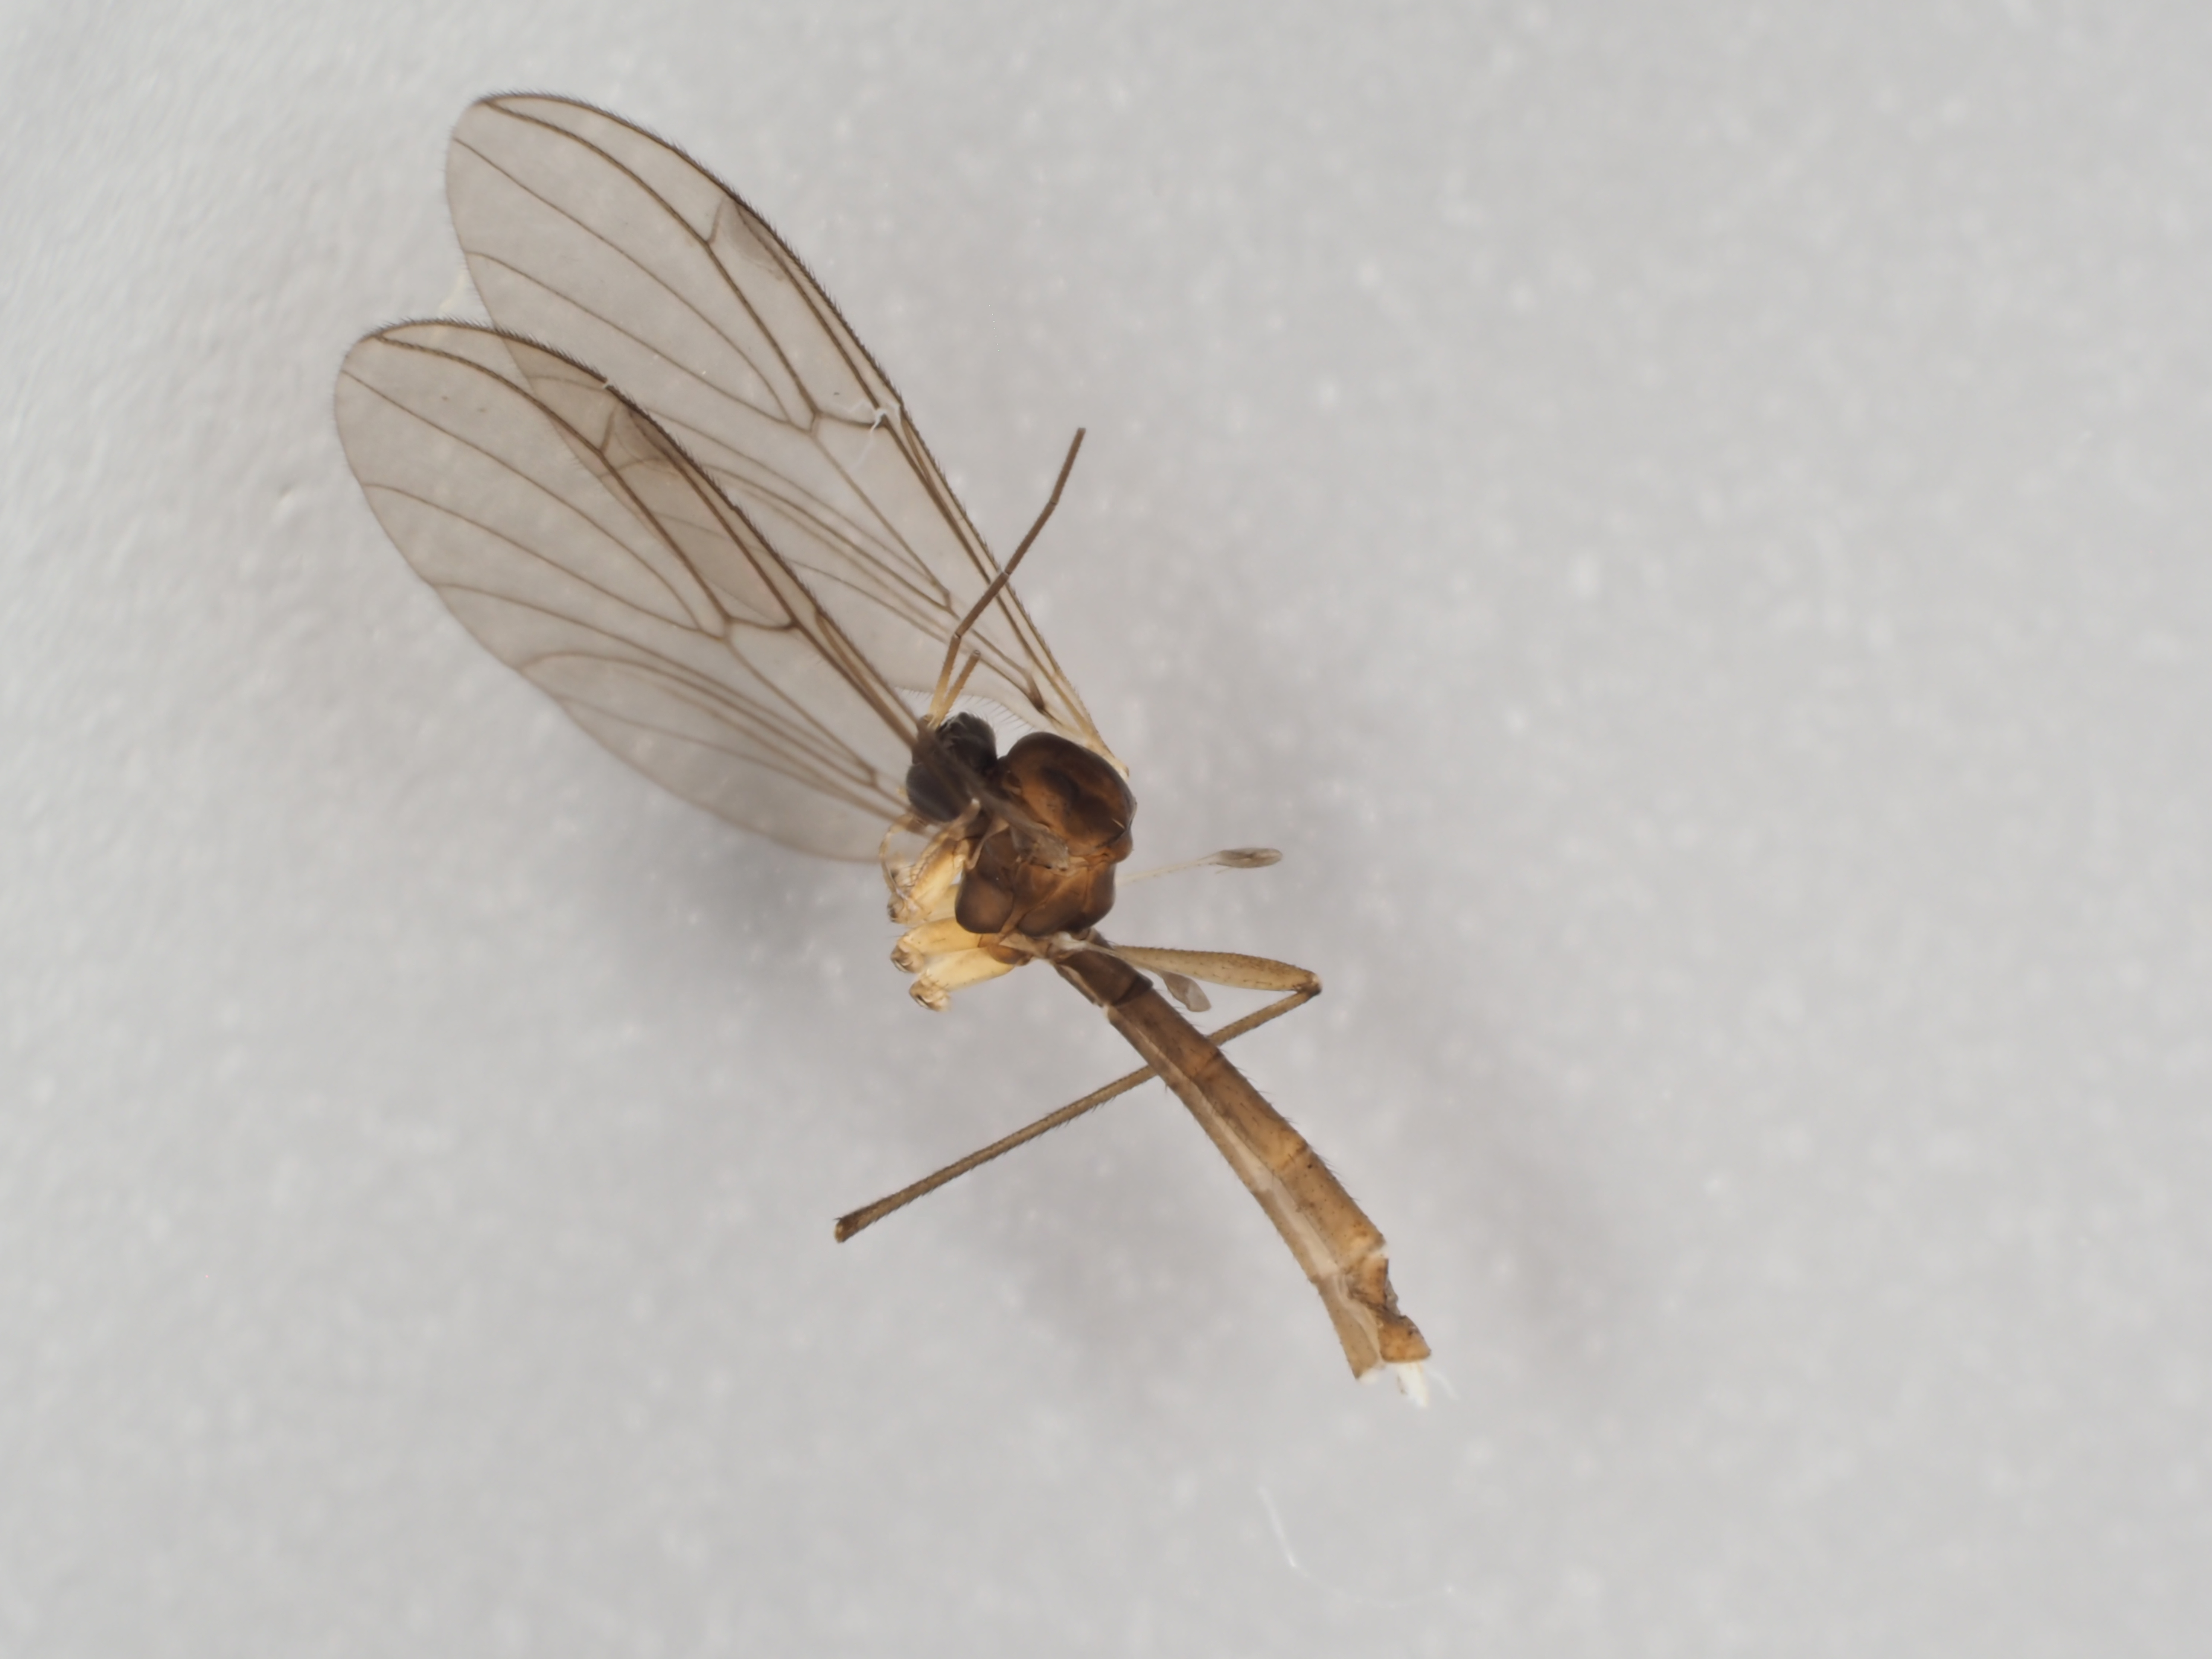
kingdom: Animalia
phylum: Arthropoda
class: Insecta
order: Diptera
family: Bolitophilidae
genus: Bolitophila
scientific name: Bolitophila hybrida
